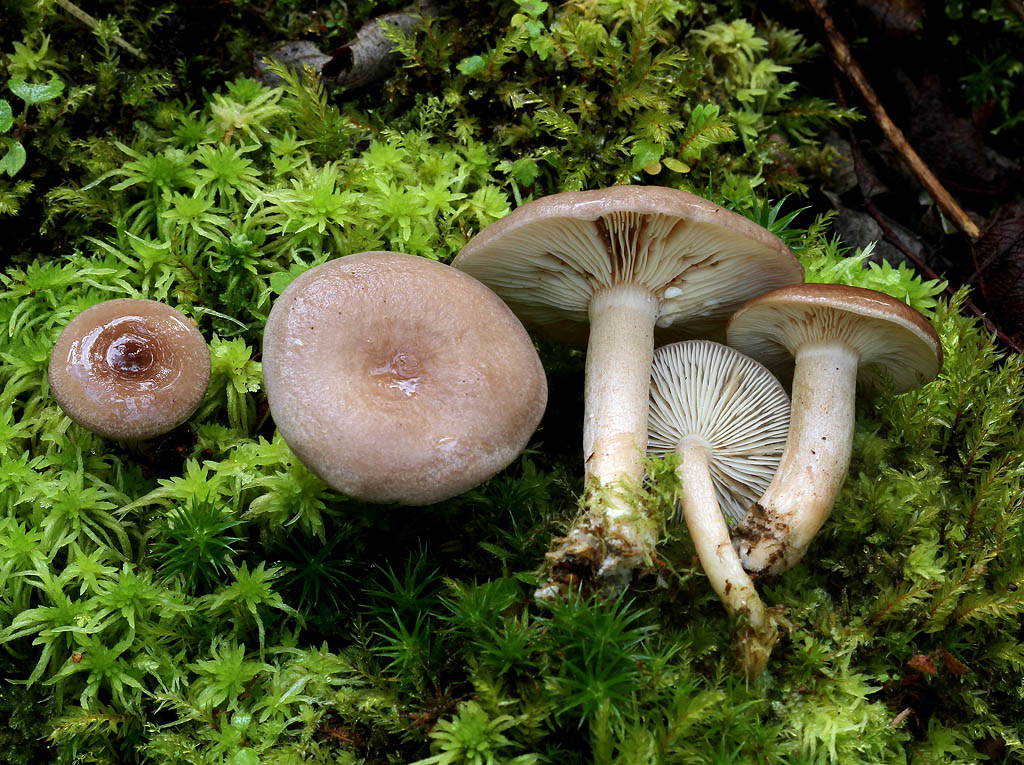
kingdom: Fungi
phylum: Basidiomycota
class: Agaricomycetes
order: Russulales
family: Russulaceae
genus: Lactarius
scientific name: Lactarius vietus
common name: violetgrå mælkehat
